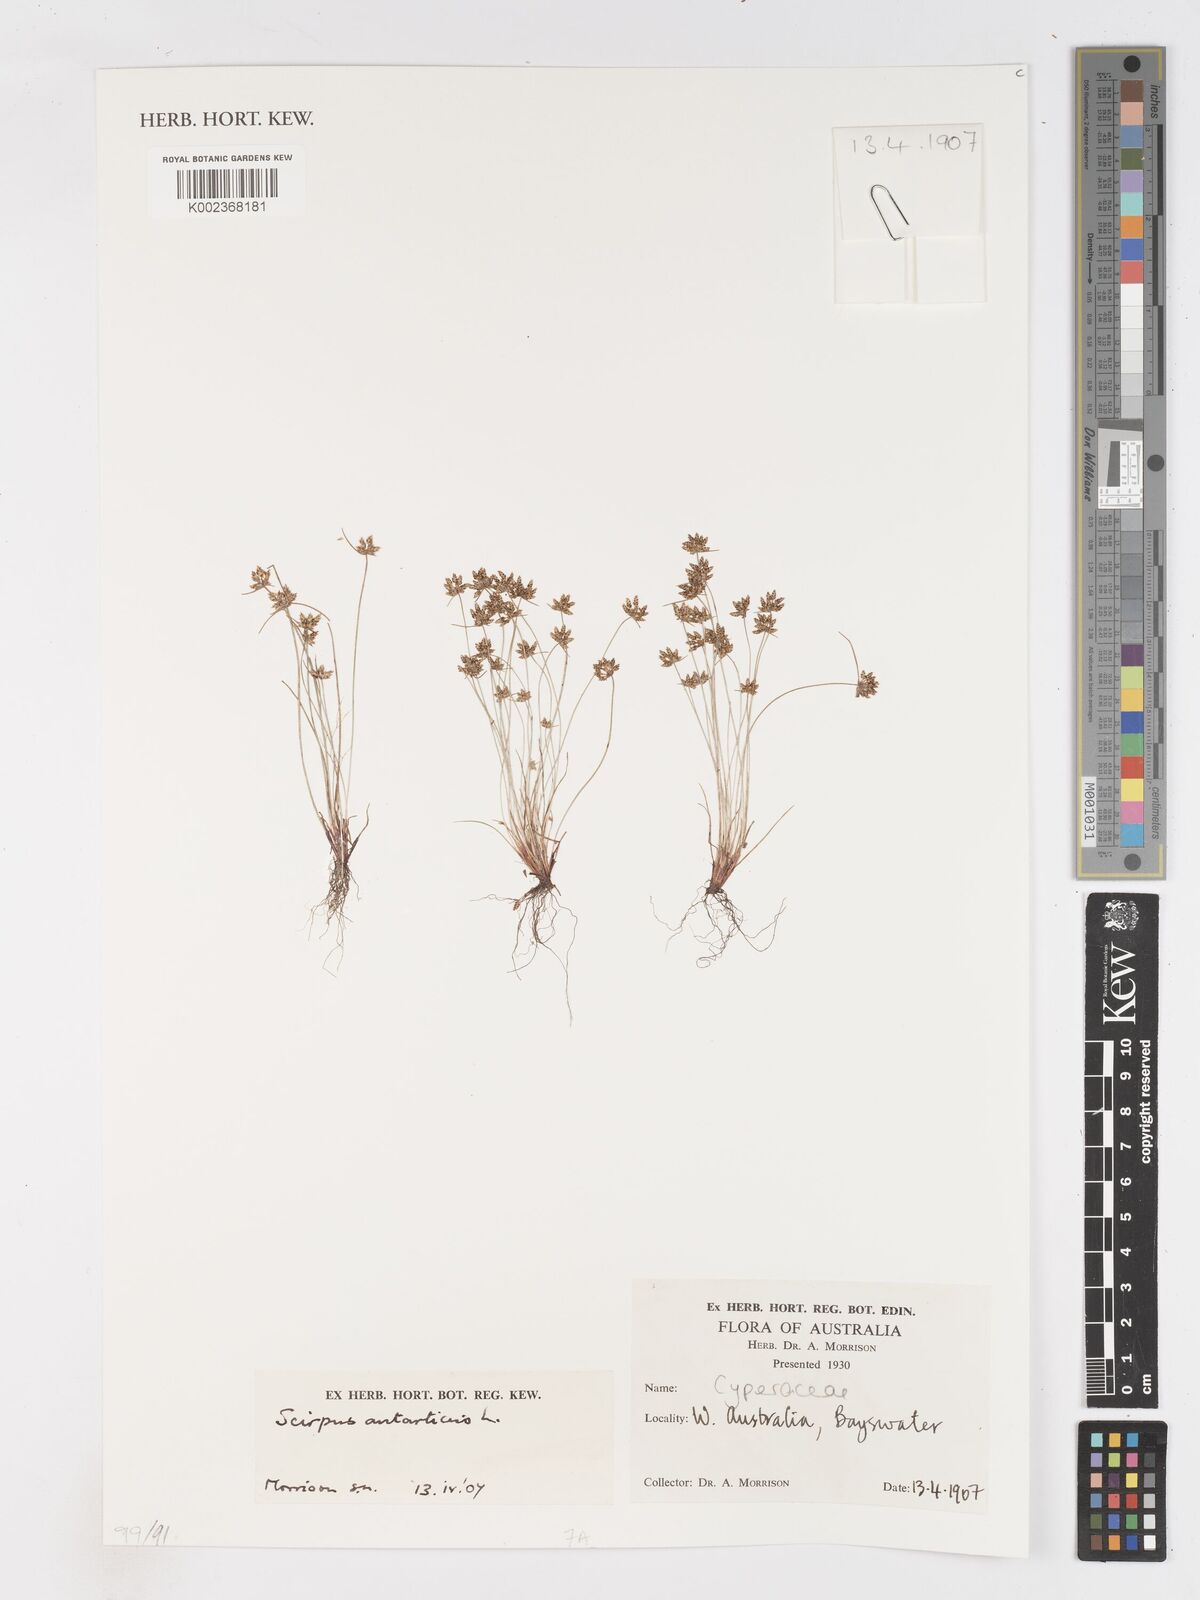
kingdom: Plantae
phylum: Tracheophyta
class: Liliopsida
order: Poales
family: Cyperaceae
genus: Isolepis
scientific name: Isolepis antarctica
